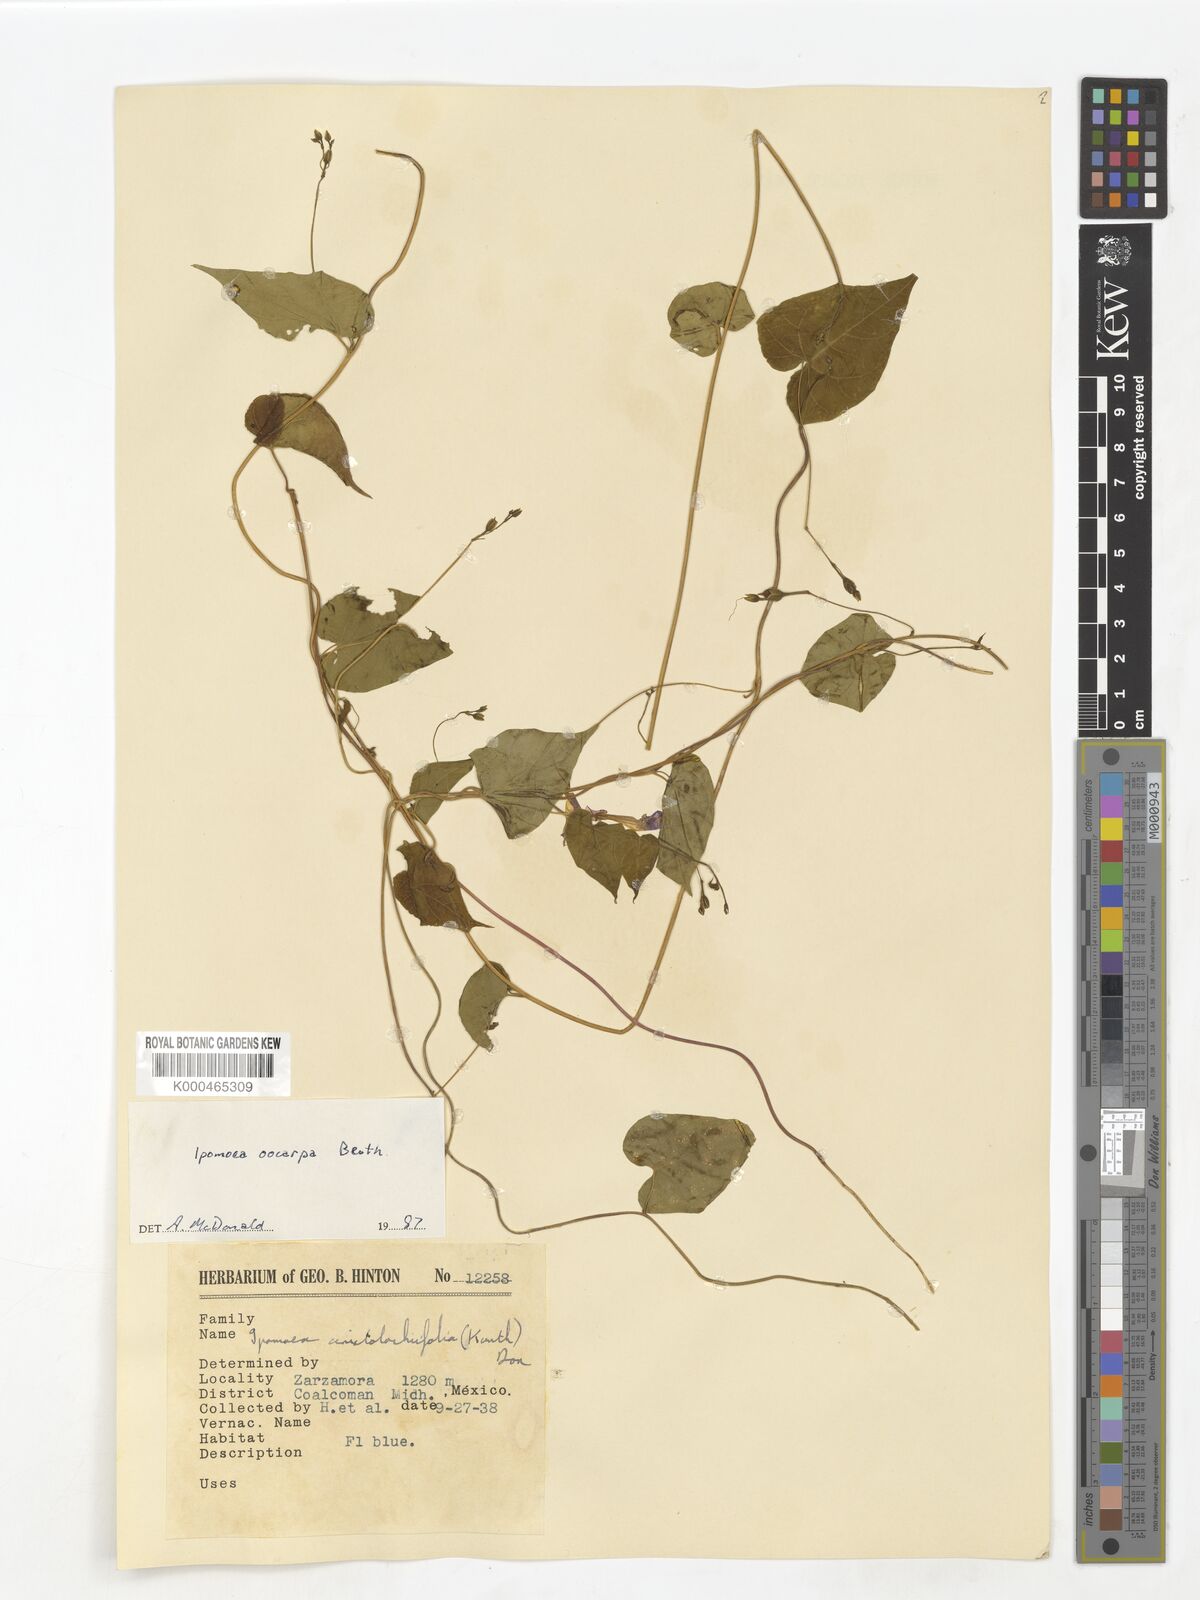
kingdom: Plantae
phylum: Tracheophyta
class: Magnoliopsida
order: Solanales
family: Convolvulaceae
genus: Ipomoea
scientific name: Ipomoea aristolochiifolia
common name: Aristolochia-leaved morning-glory
